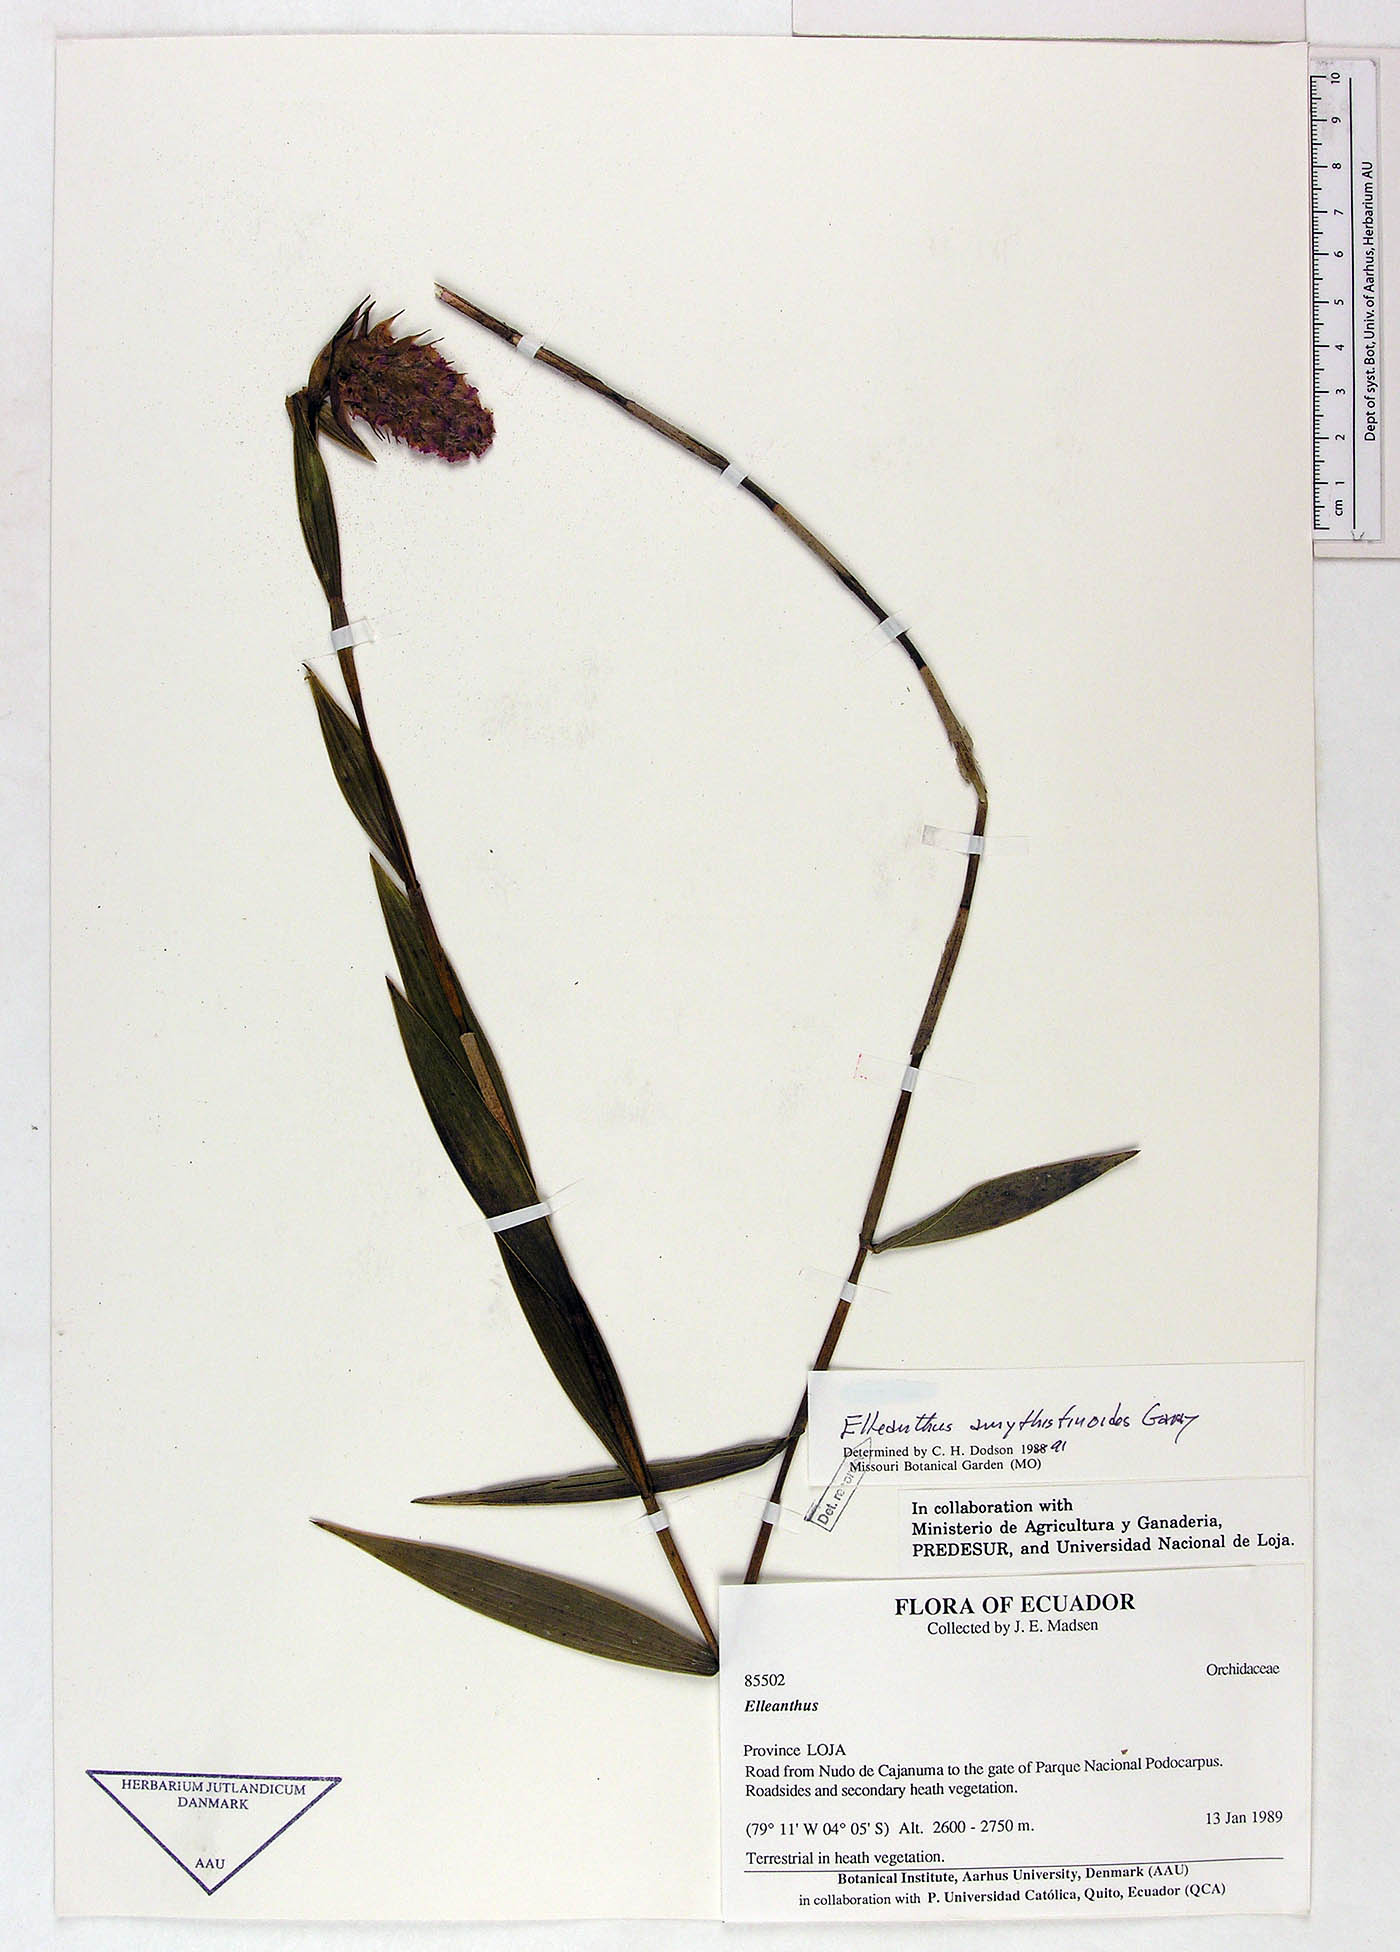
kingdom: Plantae
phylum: Tracheophyta
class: Liliopsida
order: Asparagales
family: Orchidaceae
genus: Elleanthus
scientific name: Elleanthus amethystinoides
